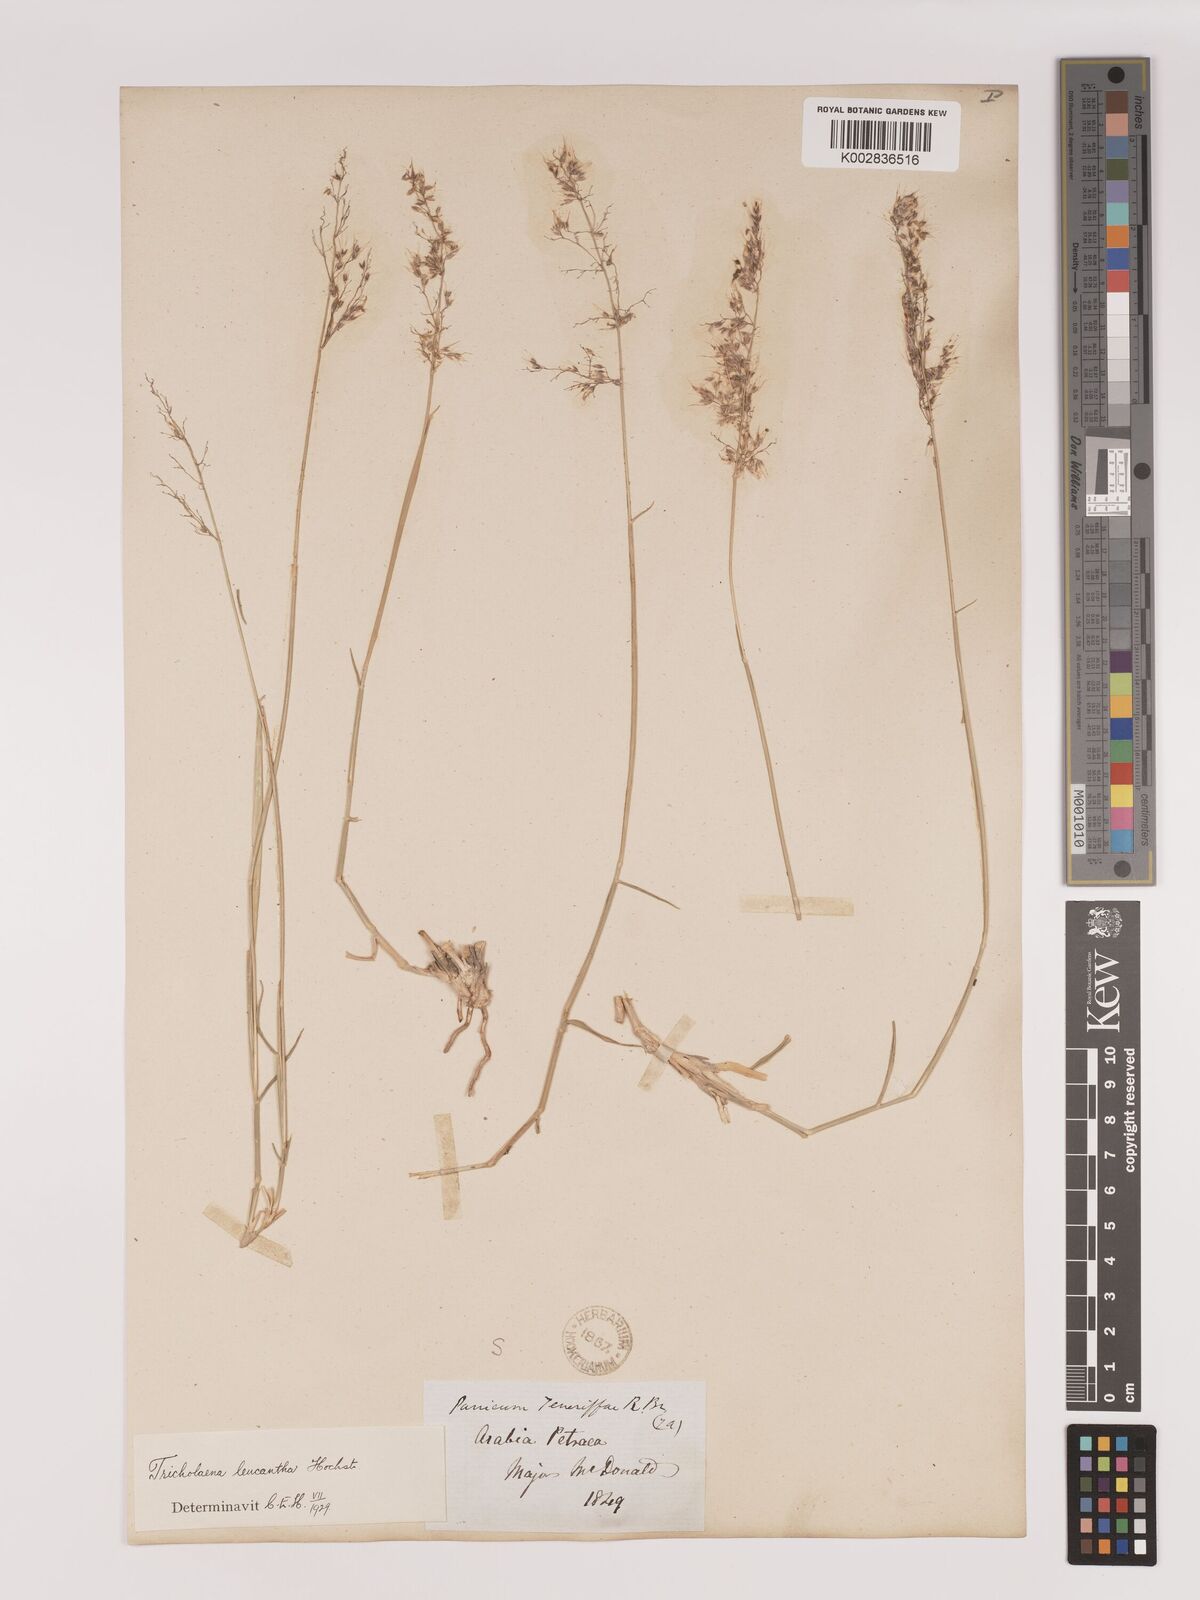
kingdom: Plantae
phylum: Tracheophyta
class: Liliopsida
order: Poales
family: Poaceae
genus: Tricholaena
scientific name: Tricholaena teneriffae
